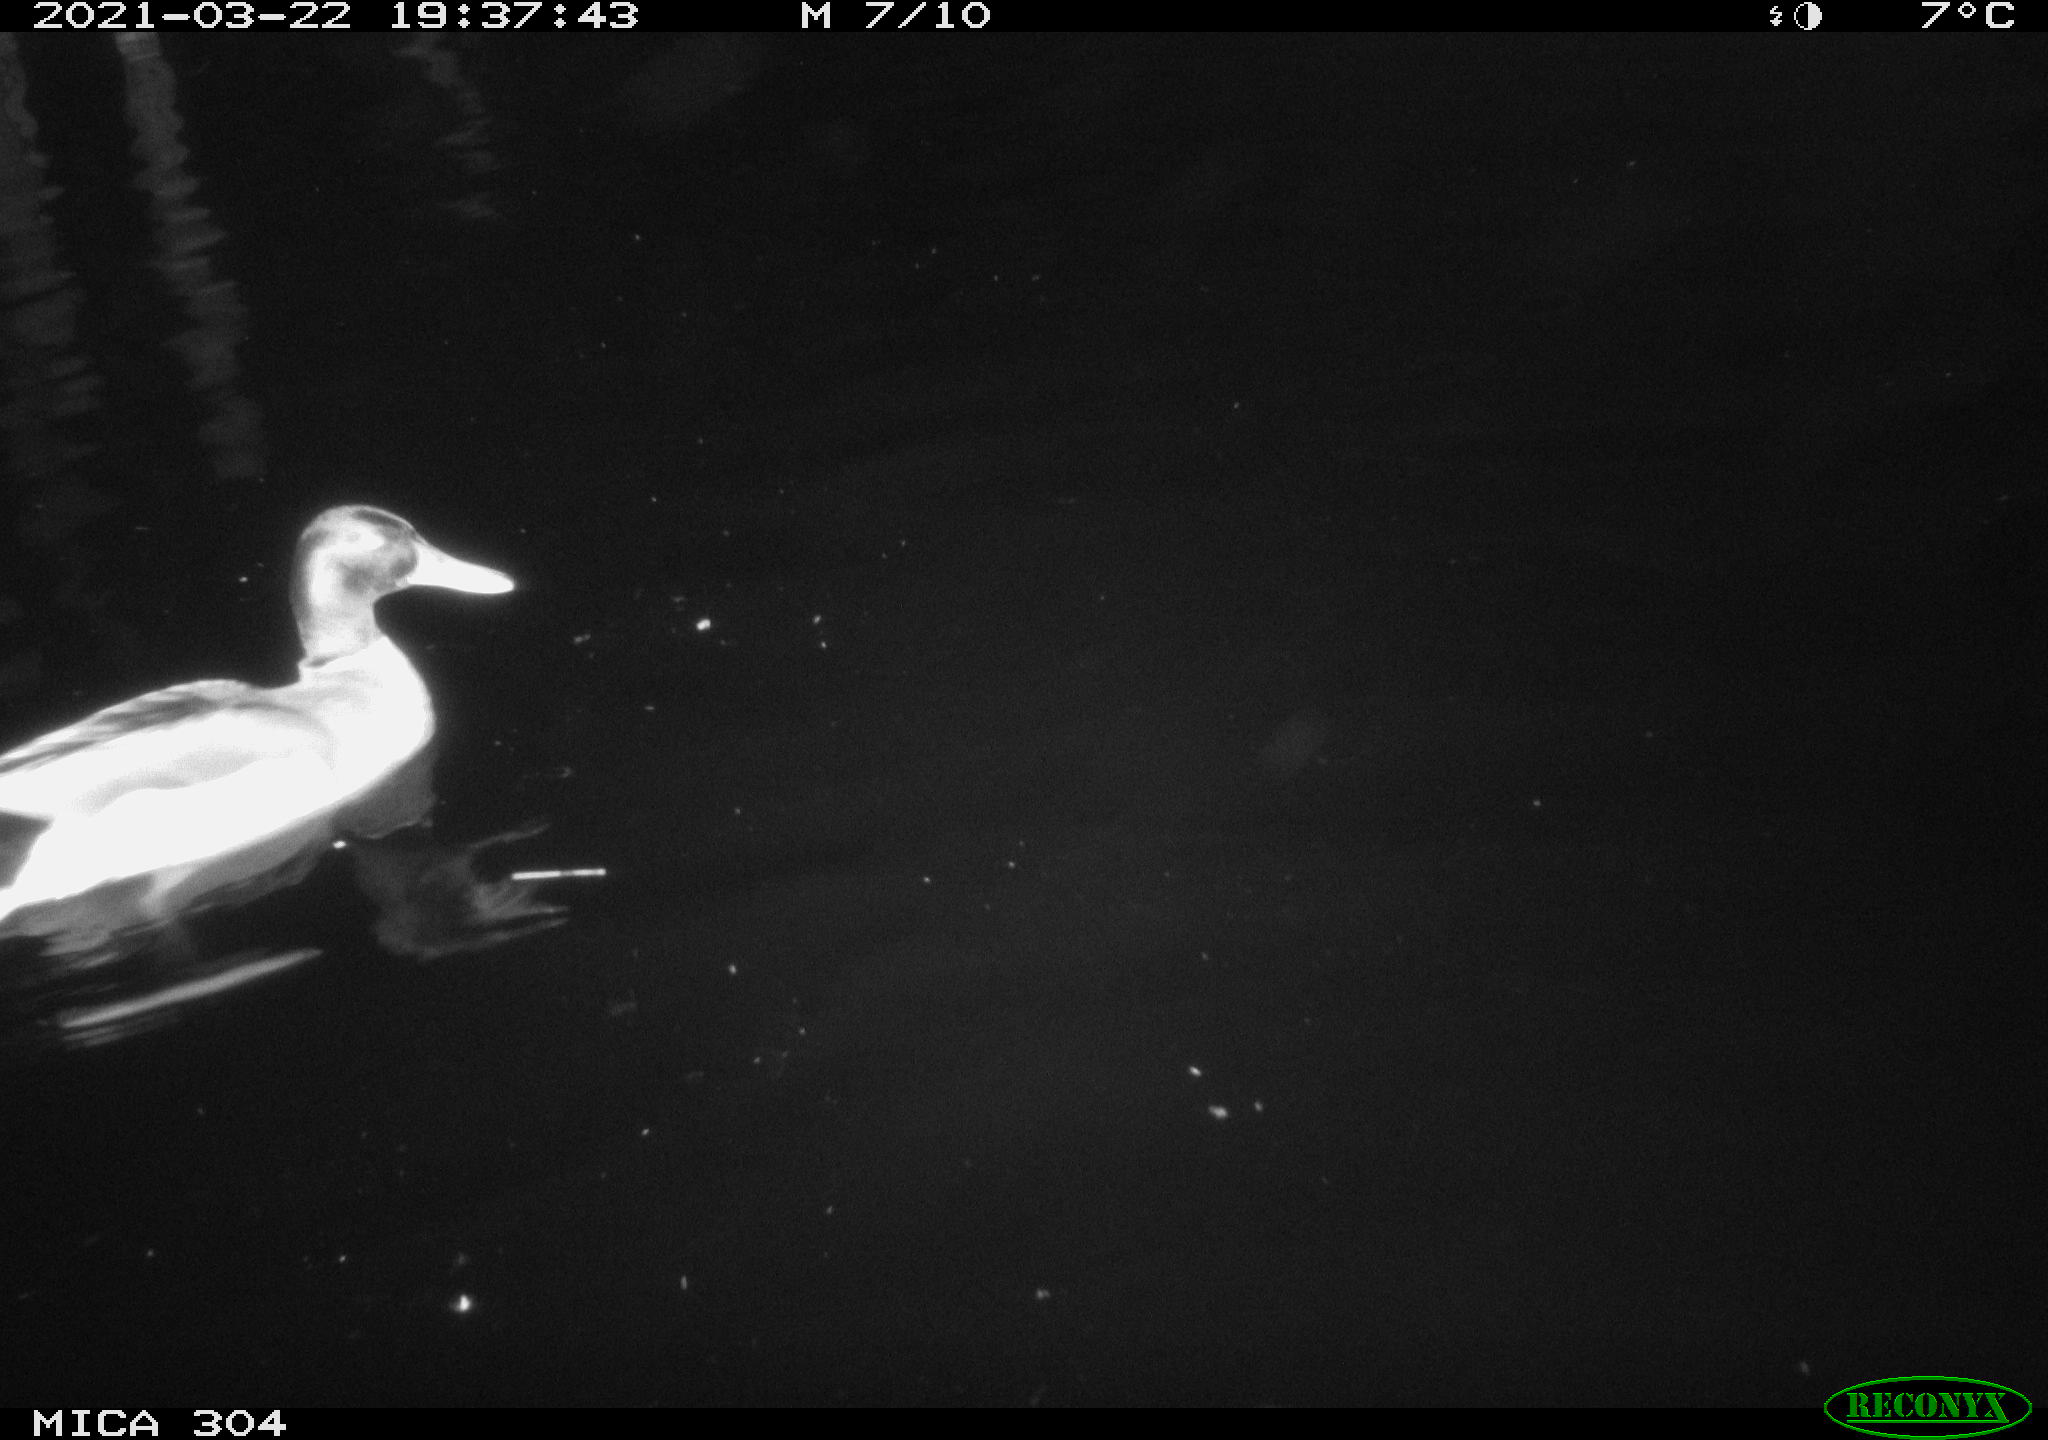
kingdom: Animalia
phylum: Chordata
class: Aves
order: Anseriformes
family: Anatidae
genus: Anas
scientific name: Anas platyrhynchos
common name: Mallard
